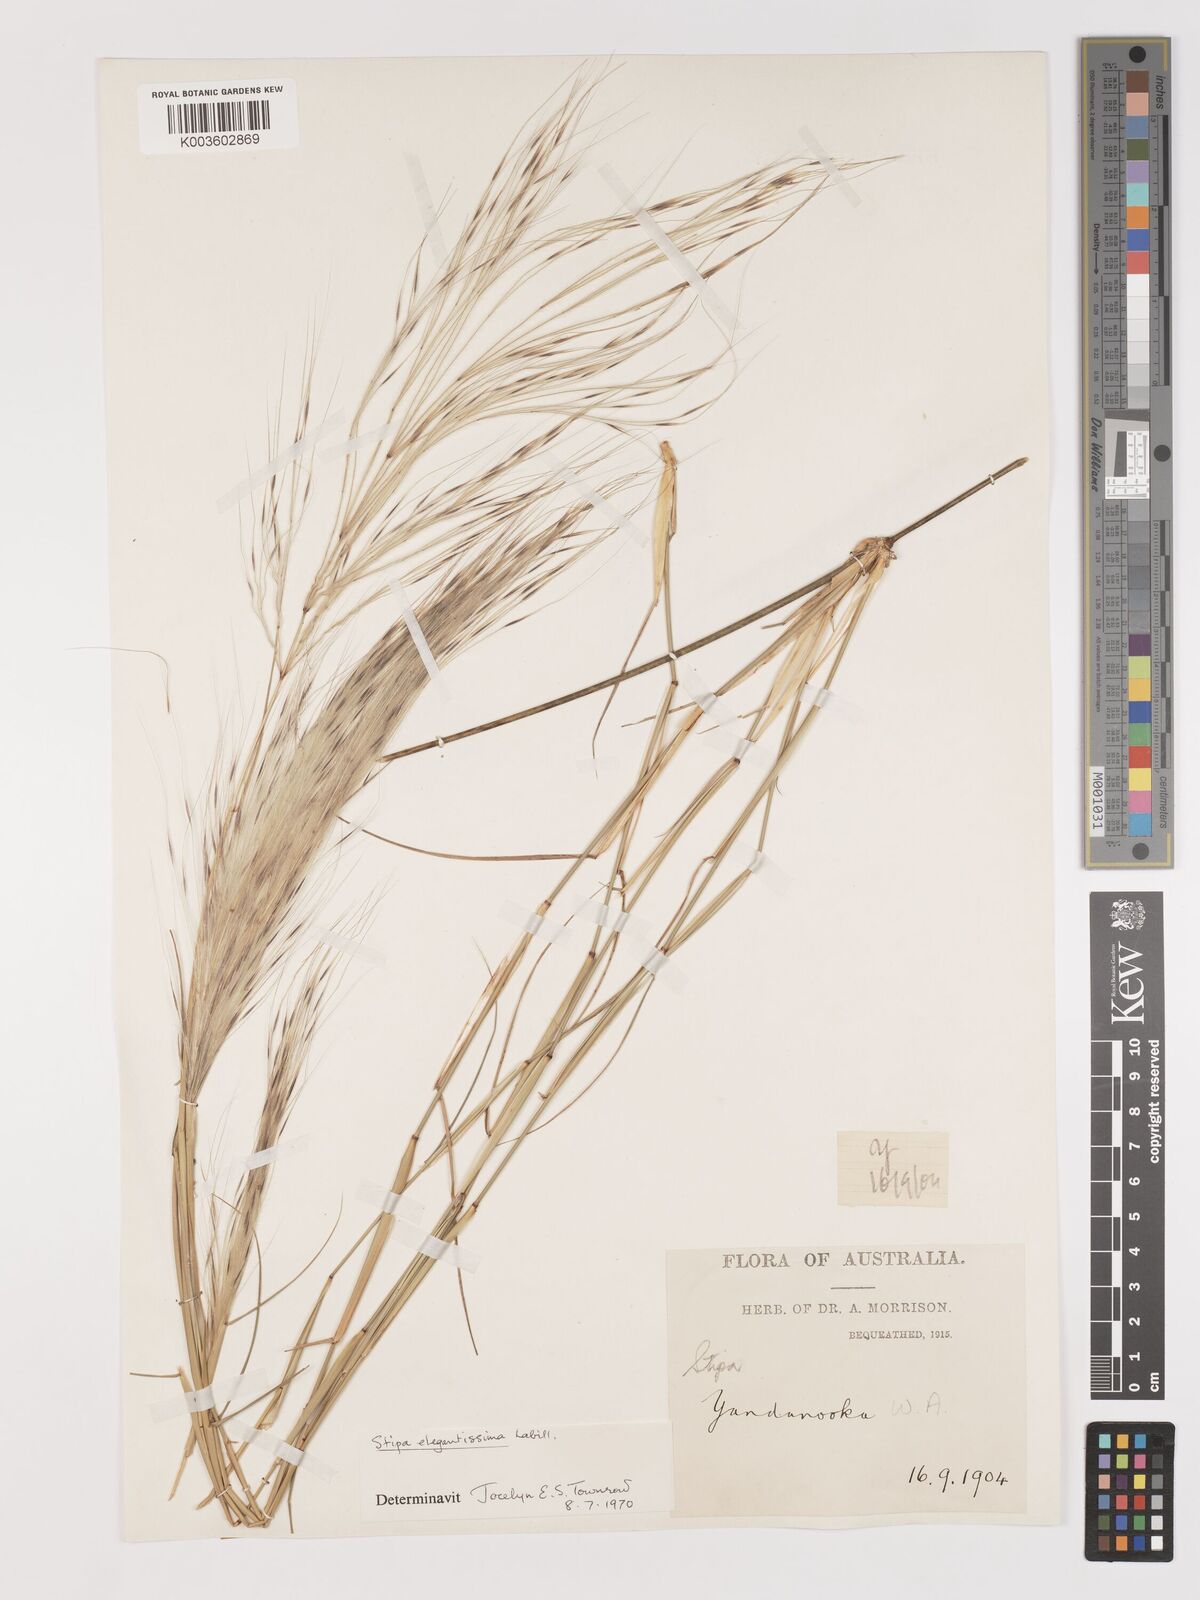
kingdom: Plantae
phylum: Tracheophyta
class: Liliopsida
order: Poales
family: Poaceae
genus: Austrostipa
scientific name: Austrostipa elegantissima
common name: Feather spear grass
